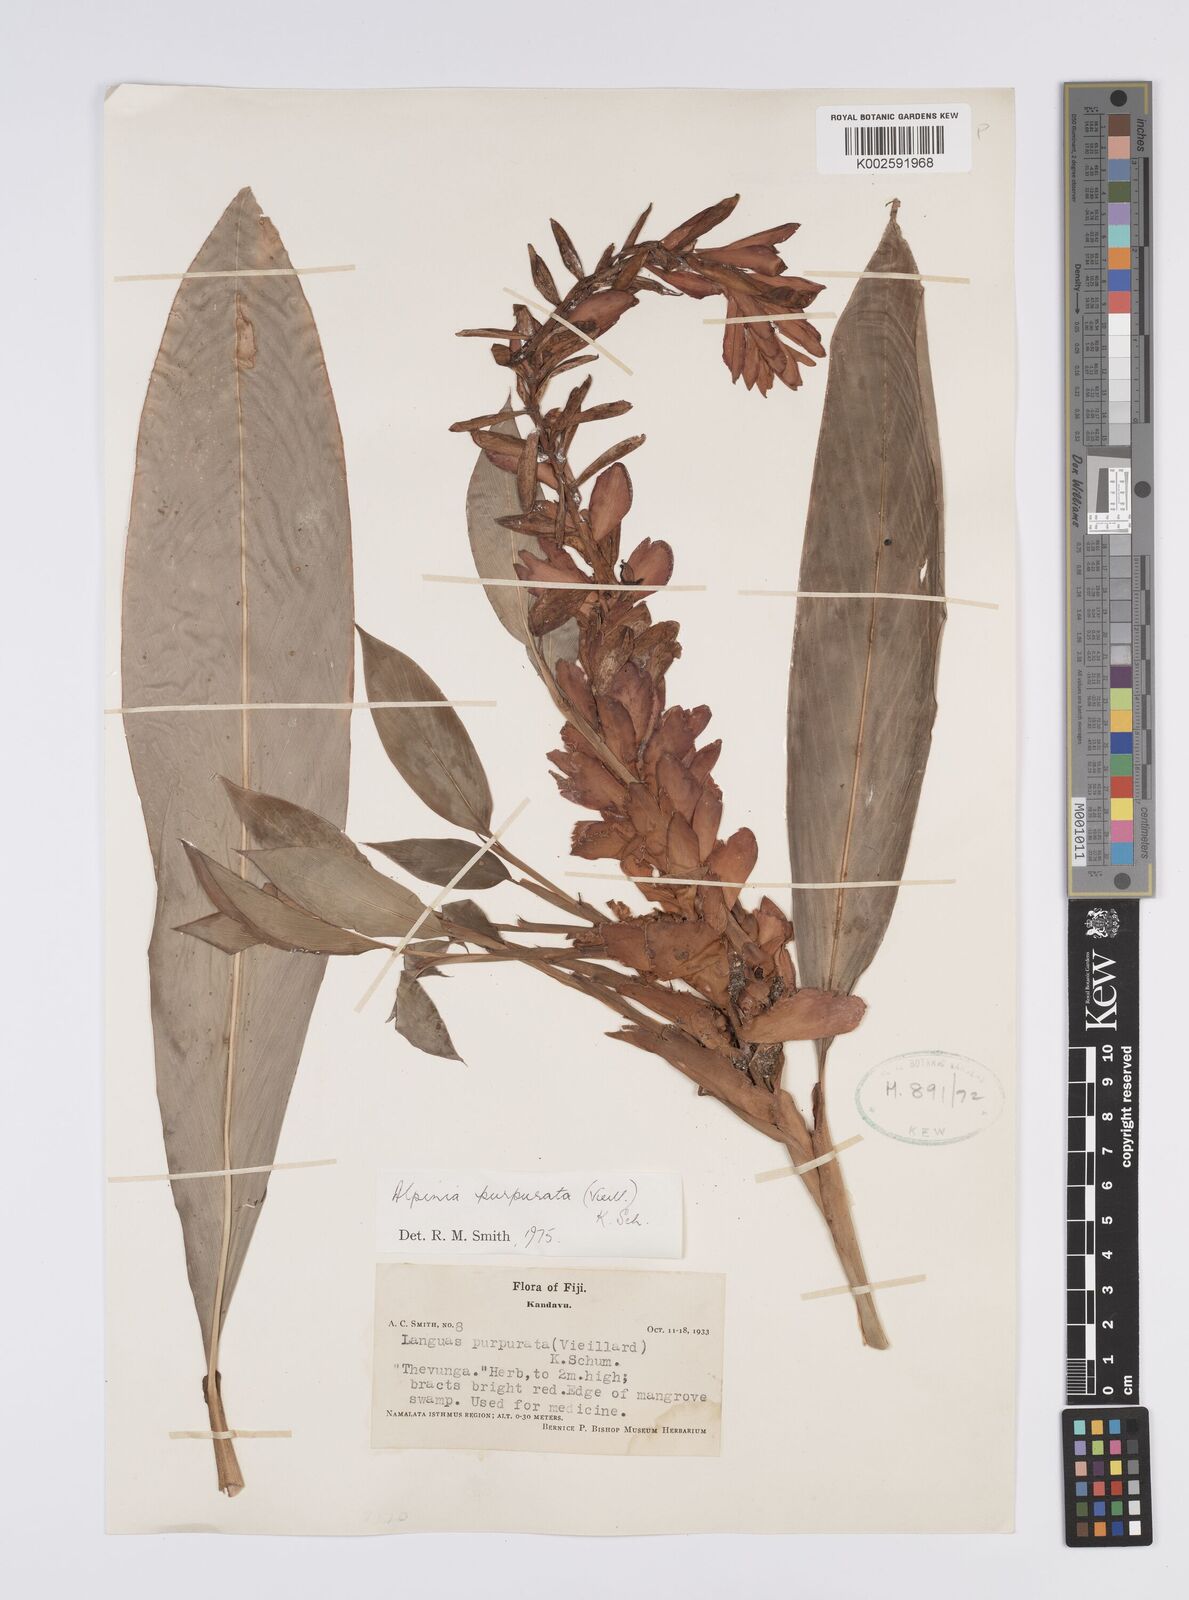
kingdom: Plantae
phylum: Tracheophyta
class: Liliopsida
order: Zingiberales
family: Zingiberaceae
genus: Alpinia
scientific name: Alpinia purpurata
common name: Red ginger
